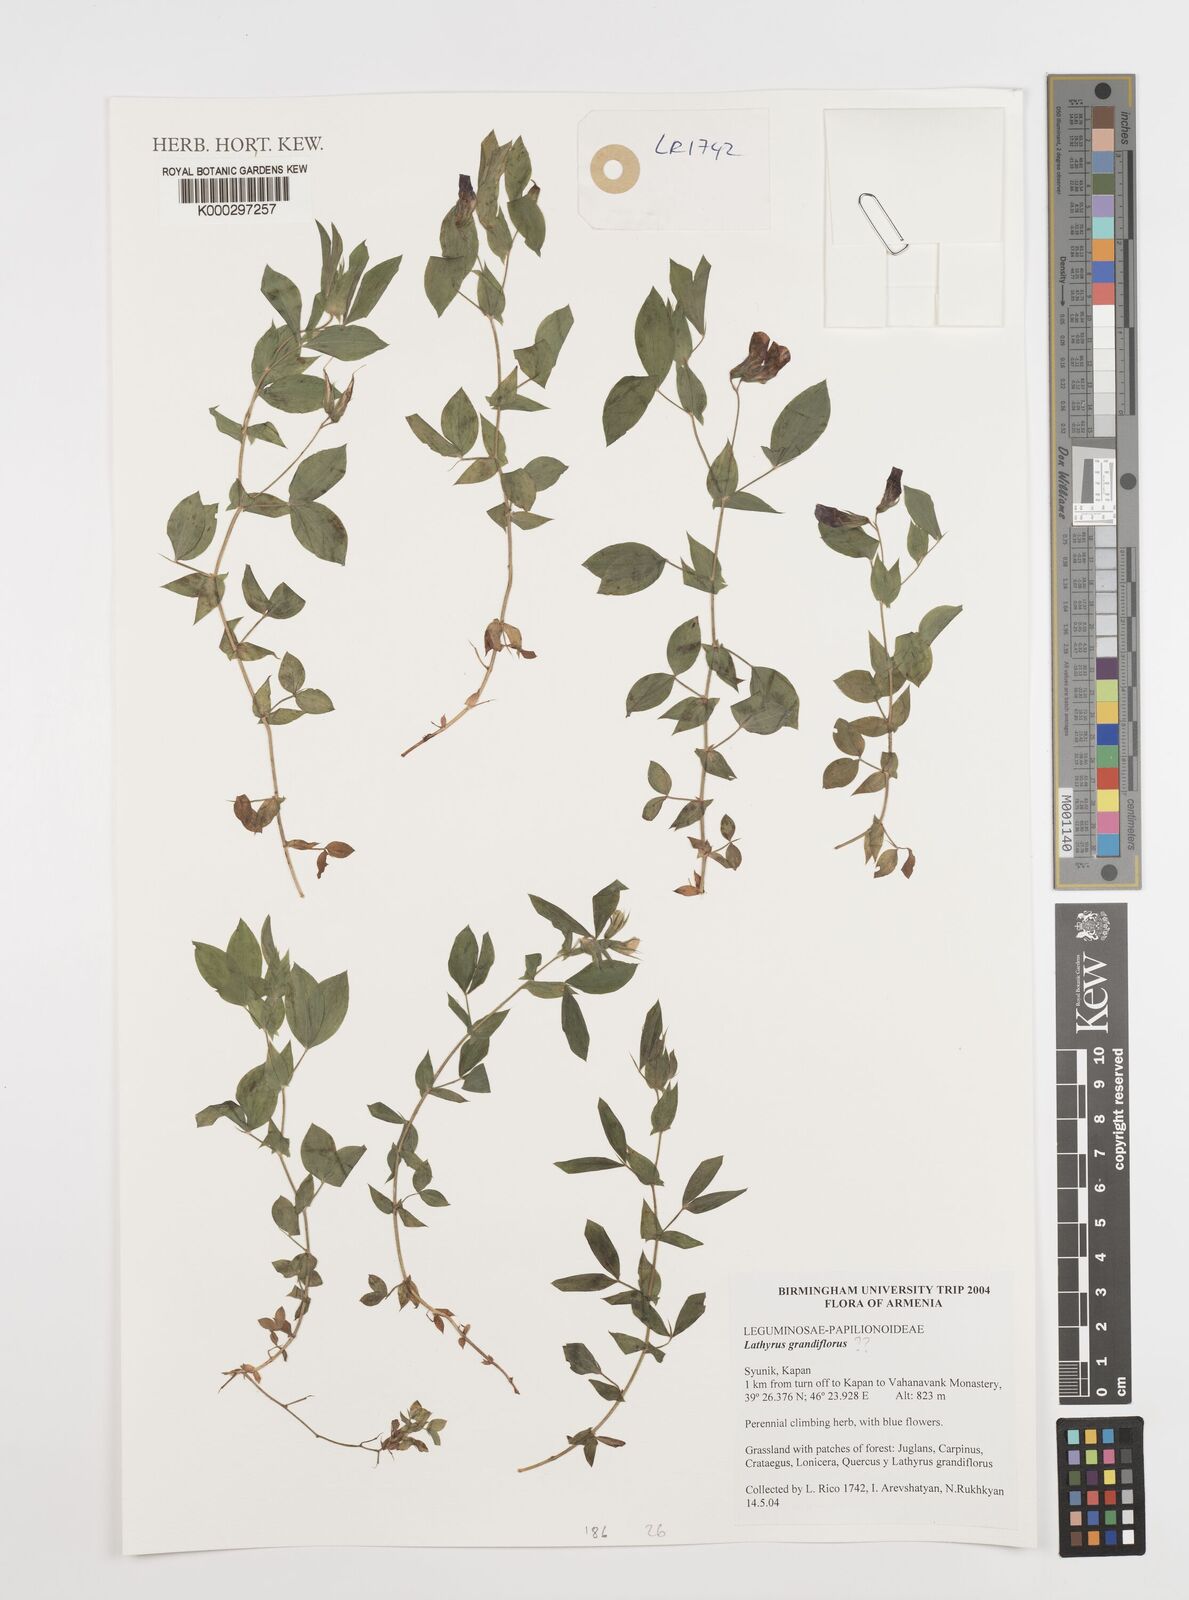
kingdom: Plantae
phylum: Tracheophyta
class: Magnoliopsida
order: Fabales
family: Fabaceae
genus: Lathyrus
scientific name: Lathyrus sylvestris
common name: Flat pea
